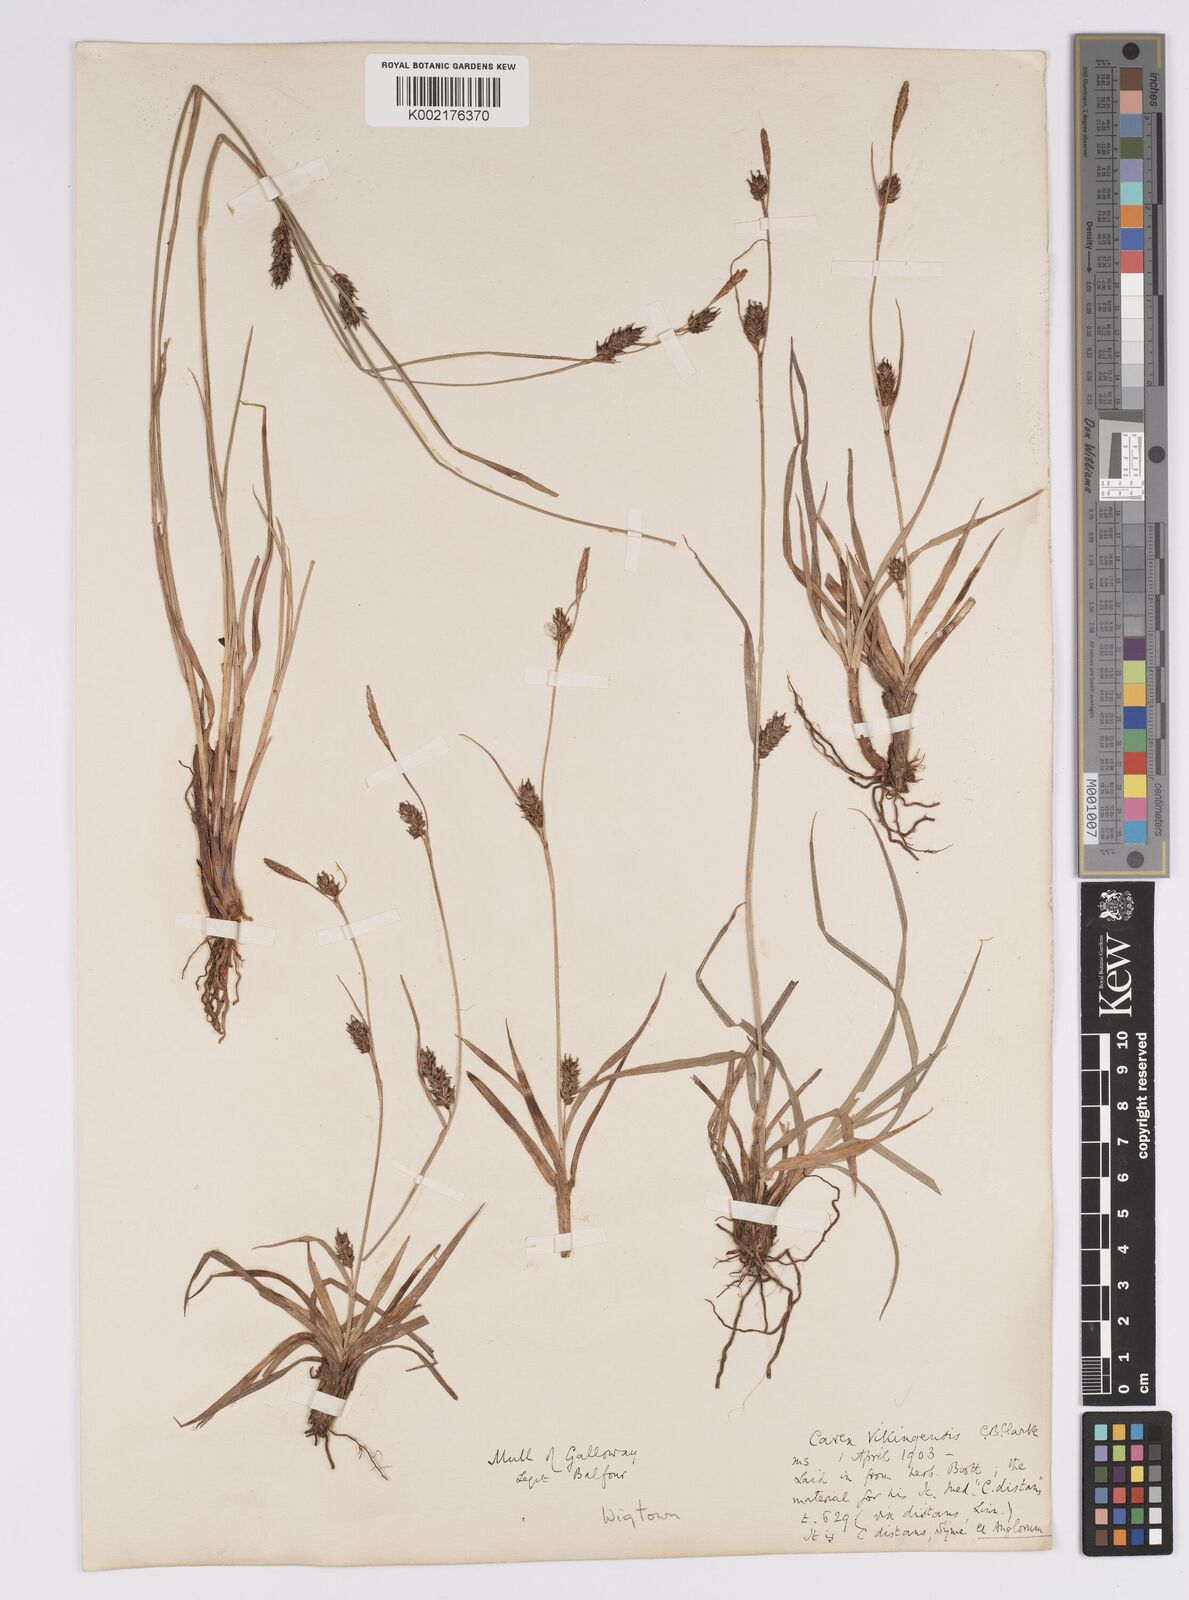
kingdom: Plantae
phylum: Tracheophyta
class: Liliopsida
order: Poales
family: Cyperaceae
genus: Carex
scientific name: Carex distans
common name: Distant sedge
